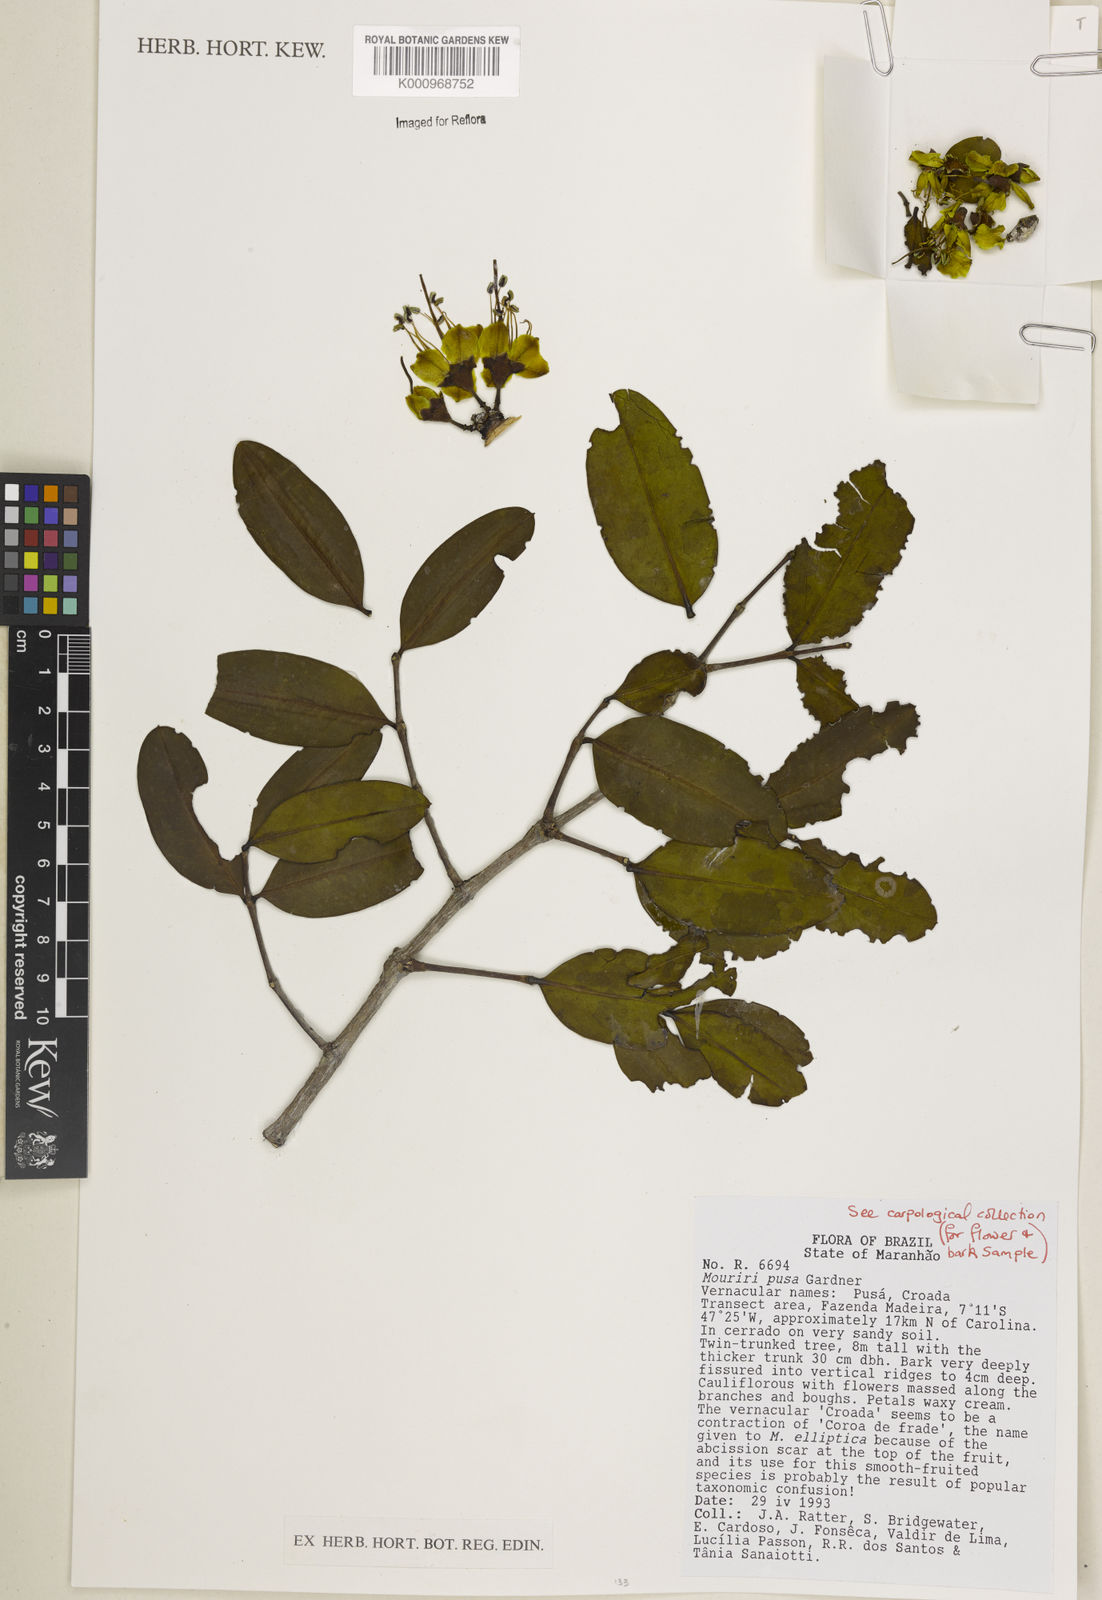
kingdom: Plantae
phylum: Tracheophyta
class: Magnoliopsida
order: Myrtales
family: Melastomataceae
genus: Mouriri
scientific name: Mouriri pusa
